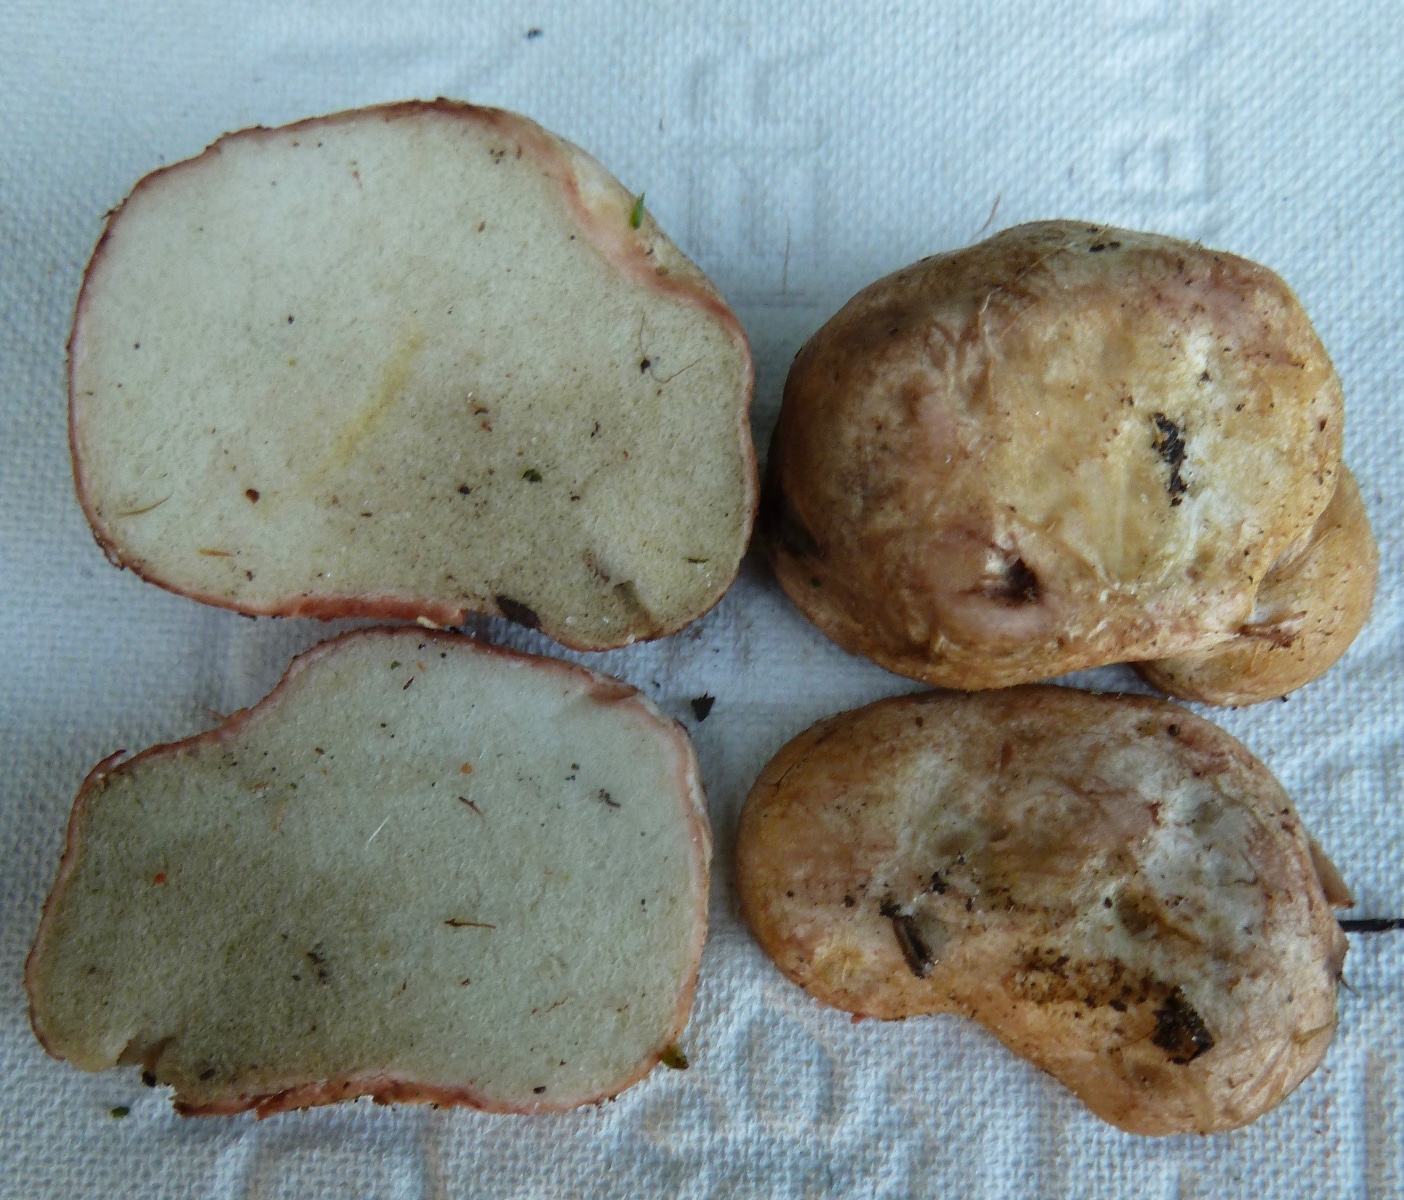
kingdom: Fungi
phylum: Basidiomycota
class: Agaricomycetes
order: Boletales
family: Rhizopogonaceae
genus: Rhizopogon
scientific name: Rhizopogon roseolus
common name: rødlig skægtrøffel
